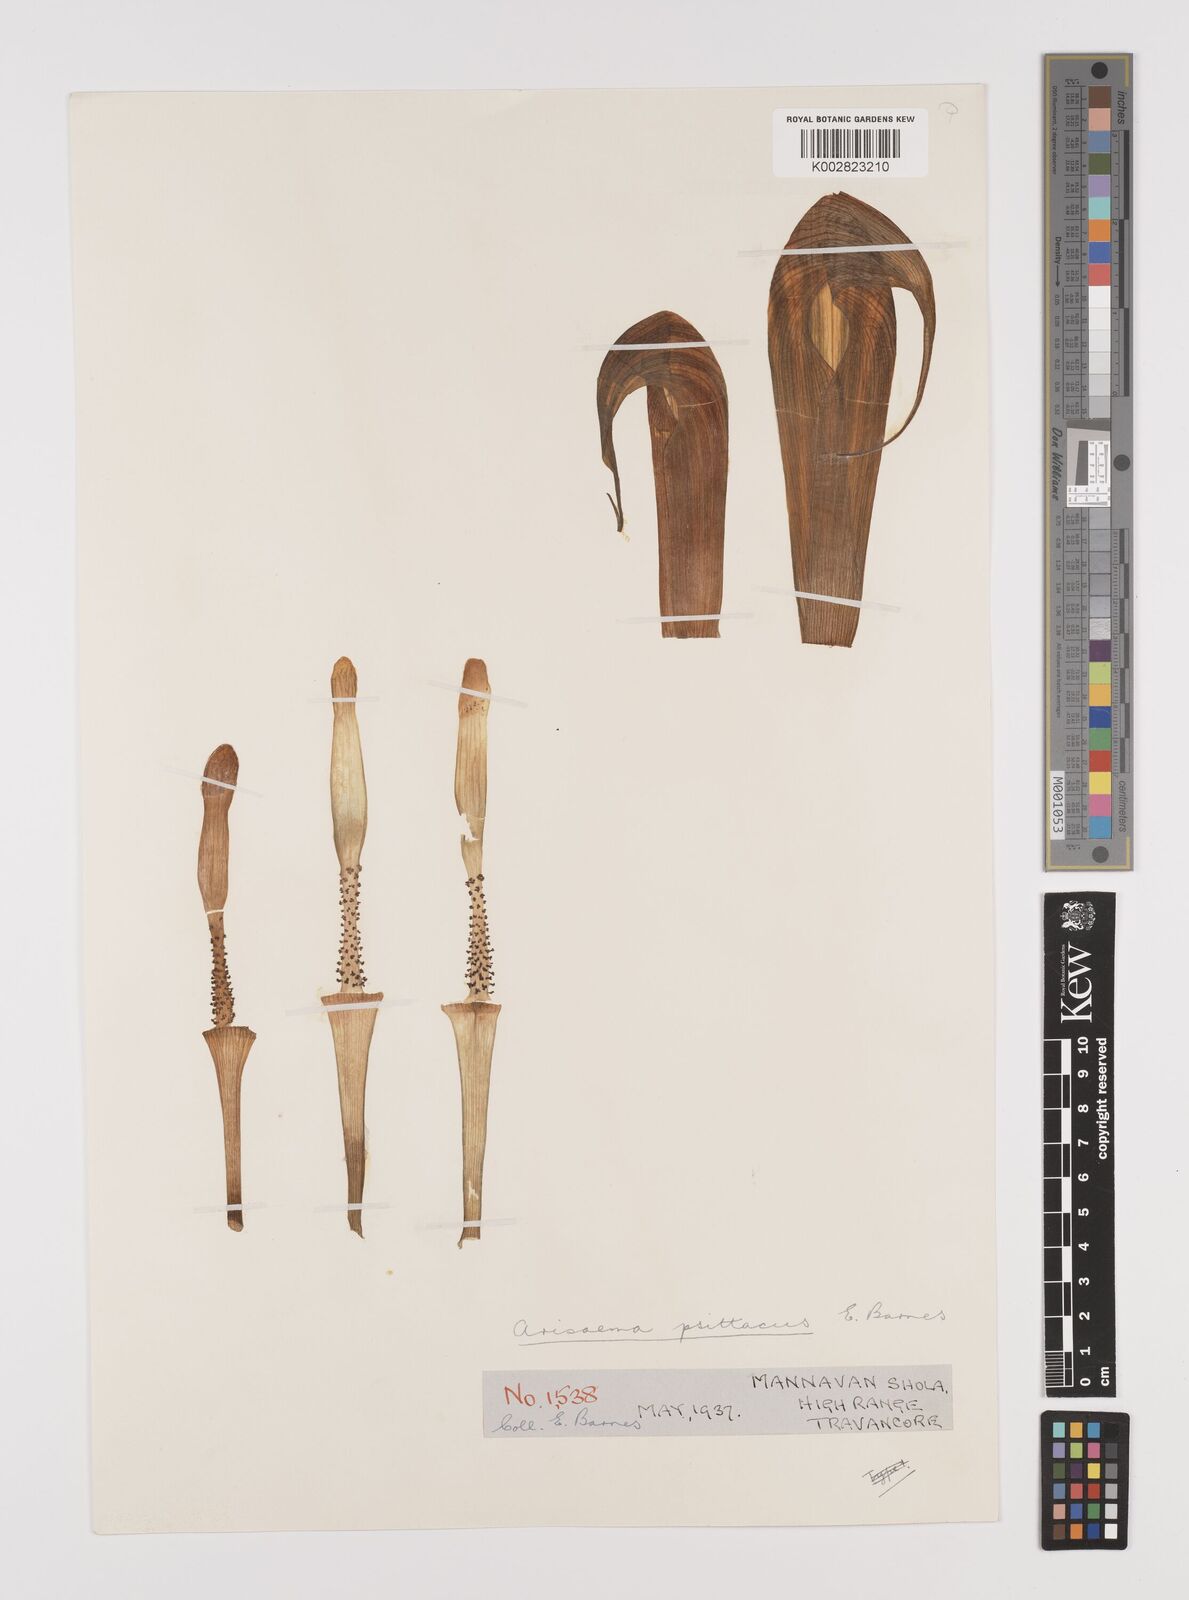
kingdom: Plantae
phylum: Tracheophyta
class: Liliopsida
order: Alismatales
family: Araceae
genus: Arisaema
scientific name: Arisaema psittacus
